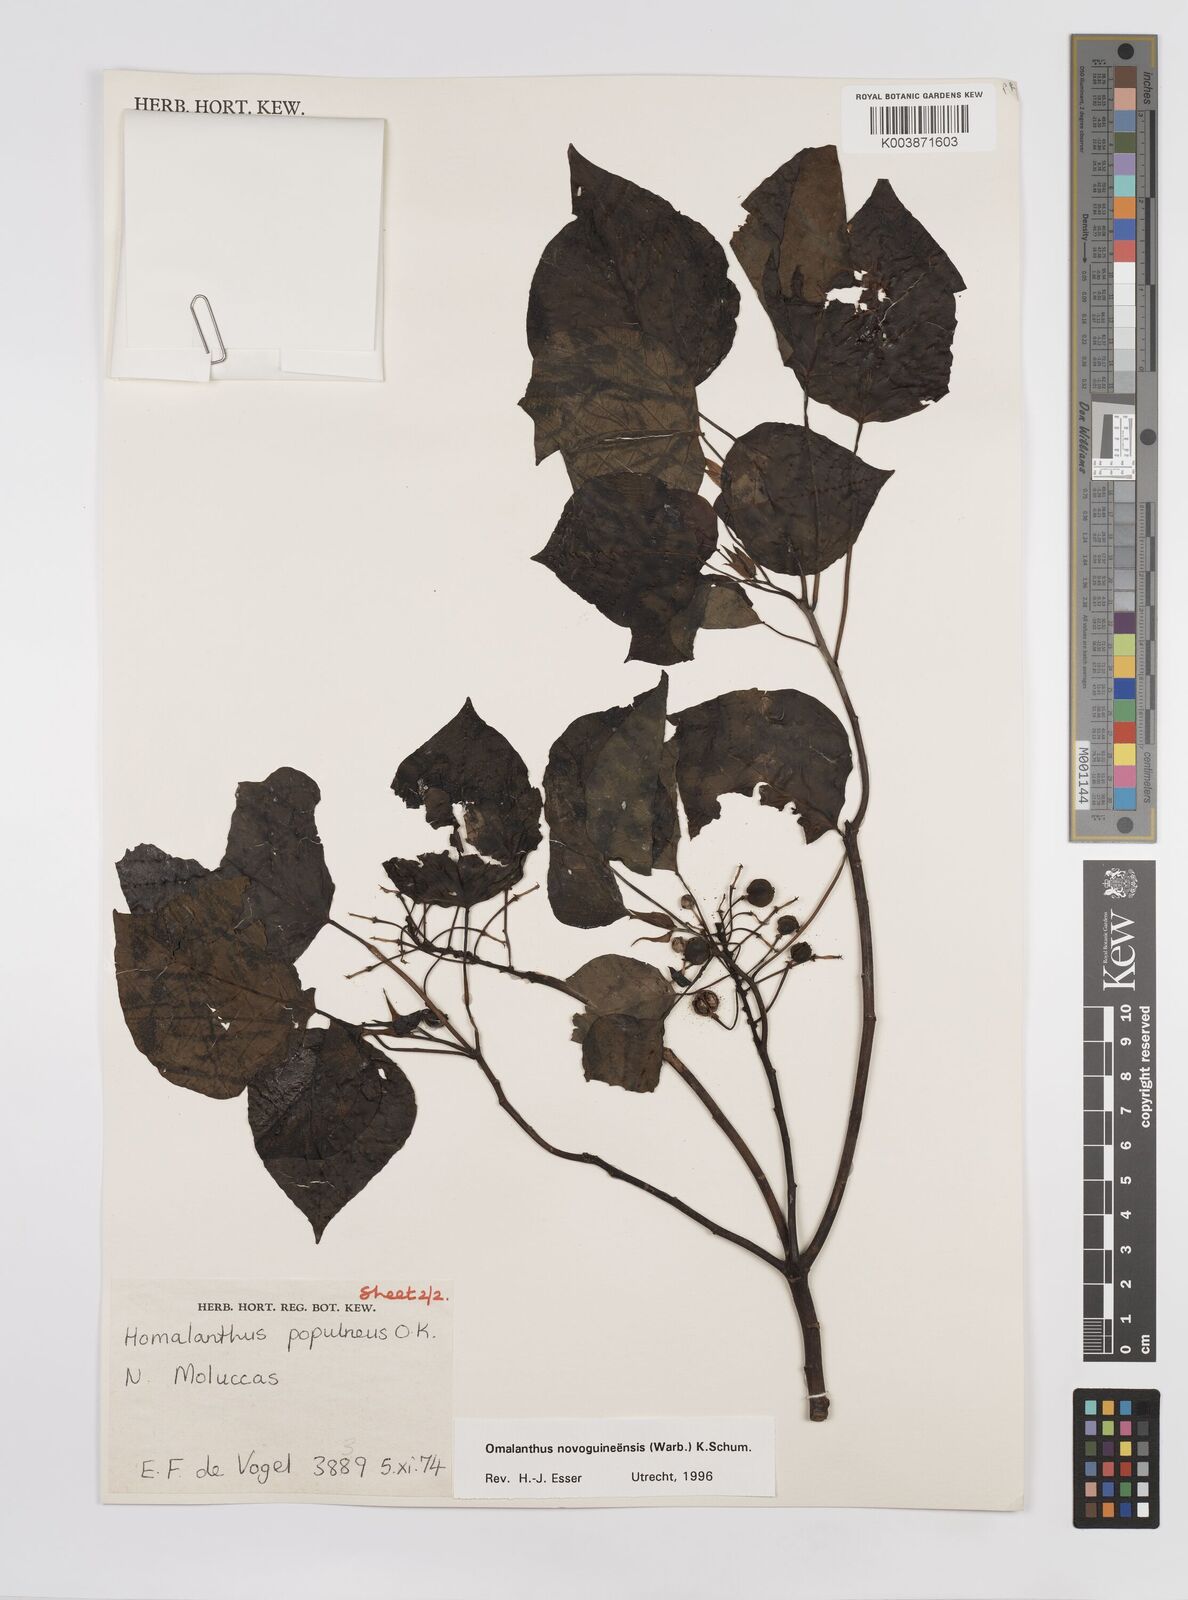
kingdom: Plantae
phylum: Tracheophyta
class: Magnoliopsida
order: Malpighiales
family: Euphorbiaceae
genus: Homalanthus
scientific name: Homalanthus novoguineensis
